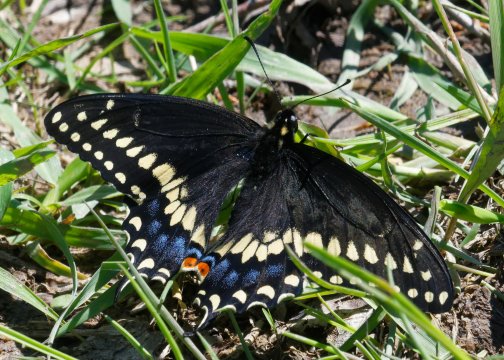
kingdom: Animalia
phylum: Arthropoda
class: Insecta
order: Lepidoptera
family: Papilionidae
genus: Papilio
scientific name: Papilio polyxenes
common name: Black Swallowtail
